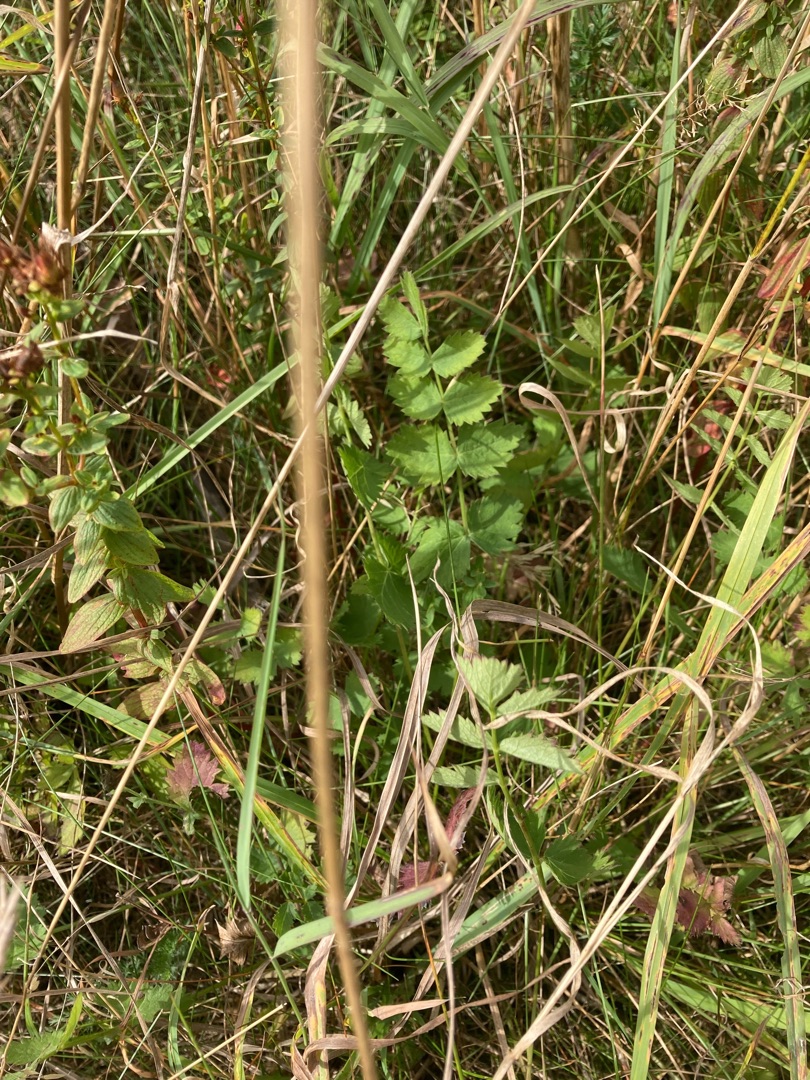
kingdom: Plantae
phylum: Tracheophyta
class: Magnoliopsida
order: Apiales
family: Apiaceae
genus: Pimpinella
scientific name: Pimpinella saxifraga
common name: Almindelig pimpinelle
